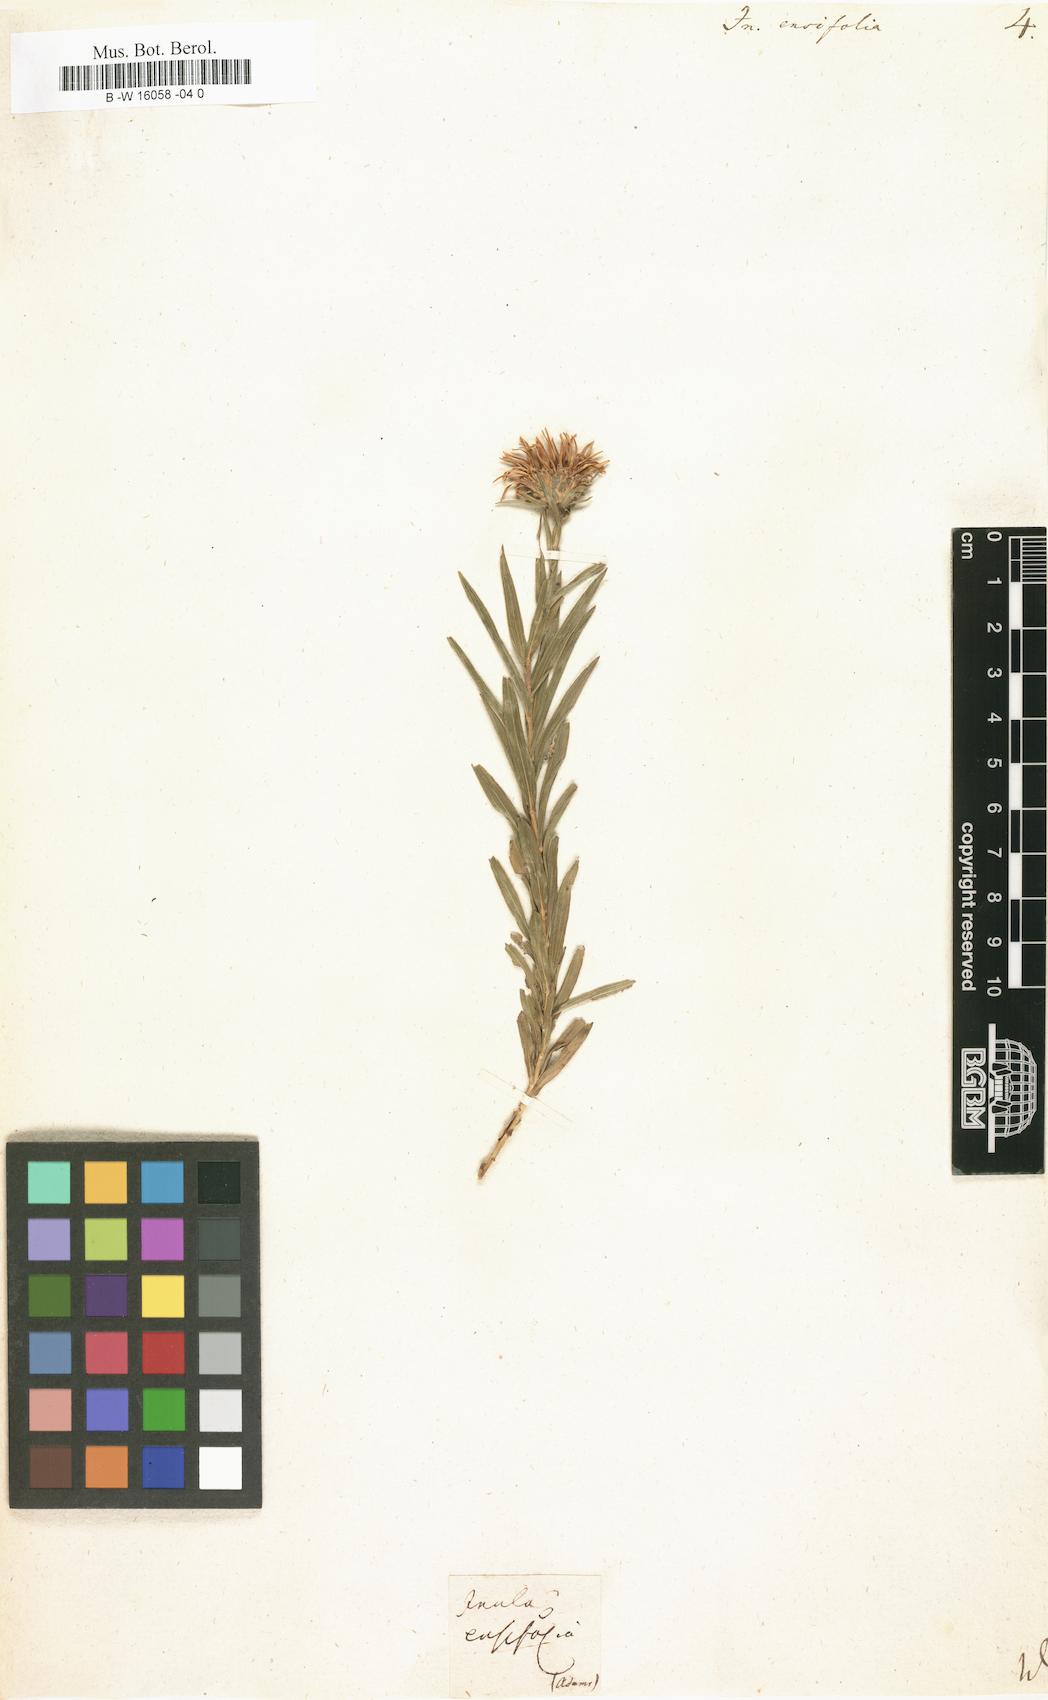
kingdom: Plantae
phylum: Tracheophyta
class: Magnoliopsida
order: Asterales
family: Asteraceae
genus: Pentanema
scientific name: Pentanema ensifolium
